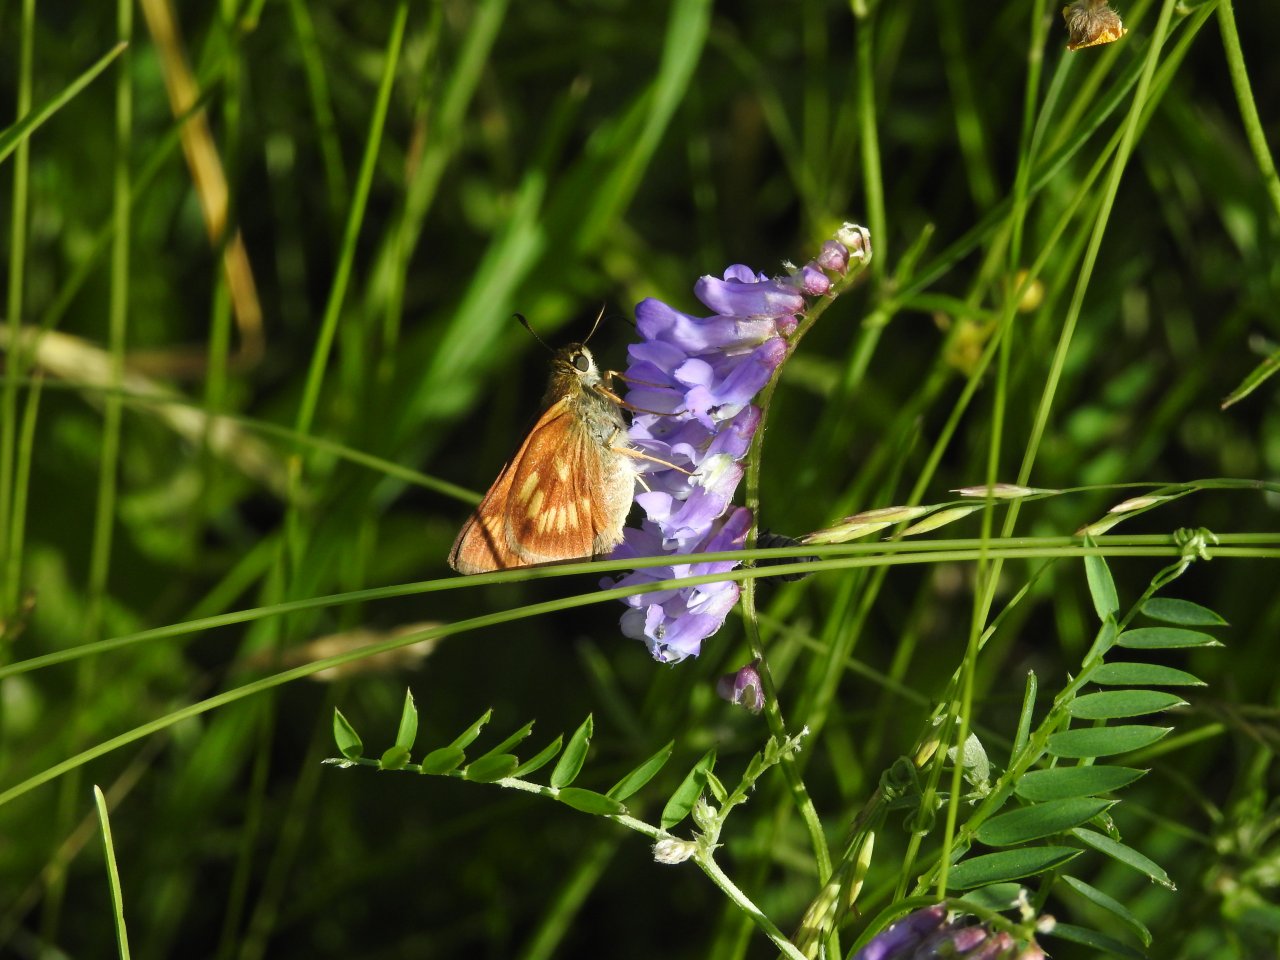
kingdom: Animalia
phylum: Arthropoda
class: Insecta
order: Lepidoptera
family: Hesperiidae
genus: Polites
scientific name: Polites
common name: Long Dash Skipper
